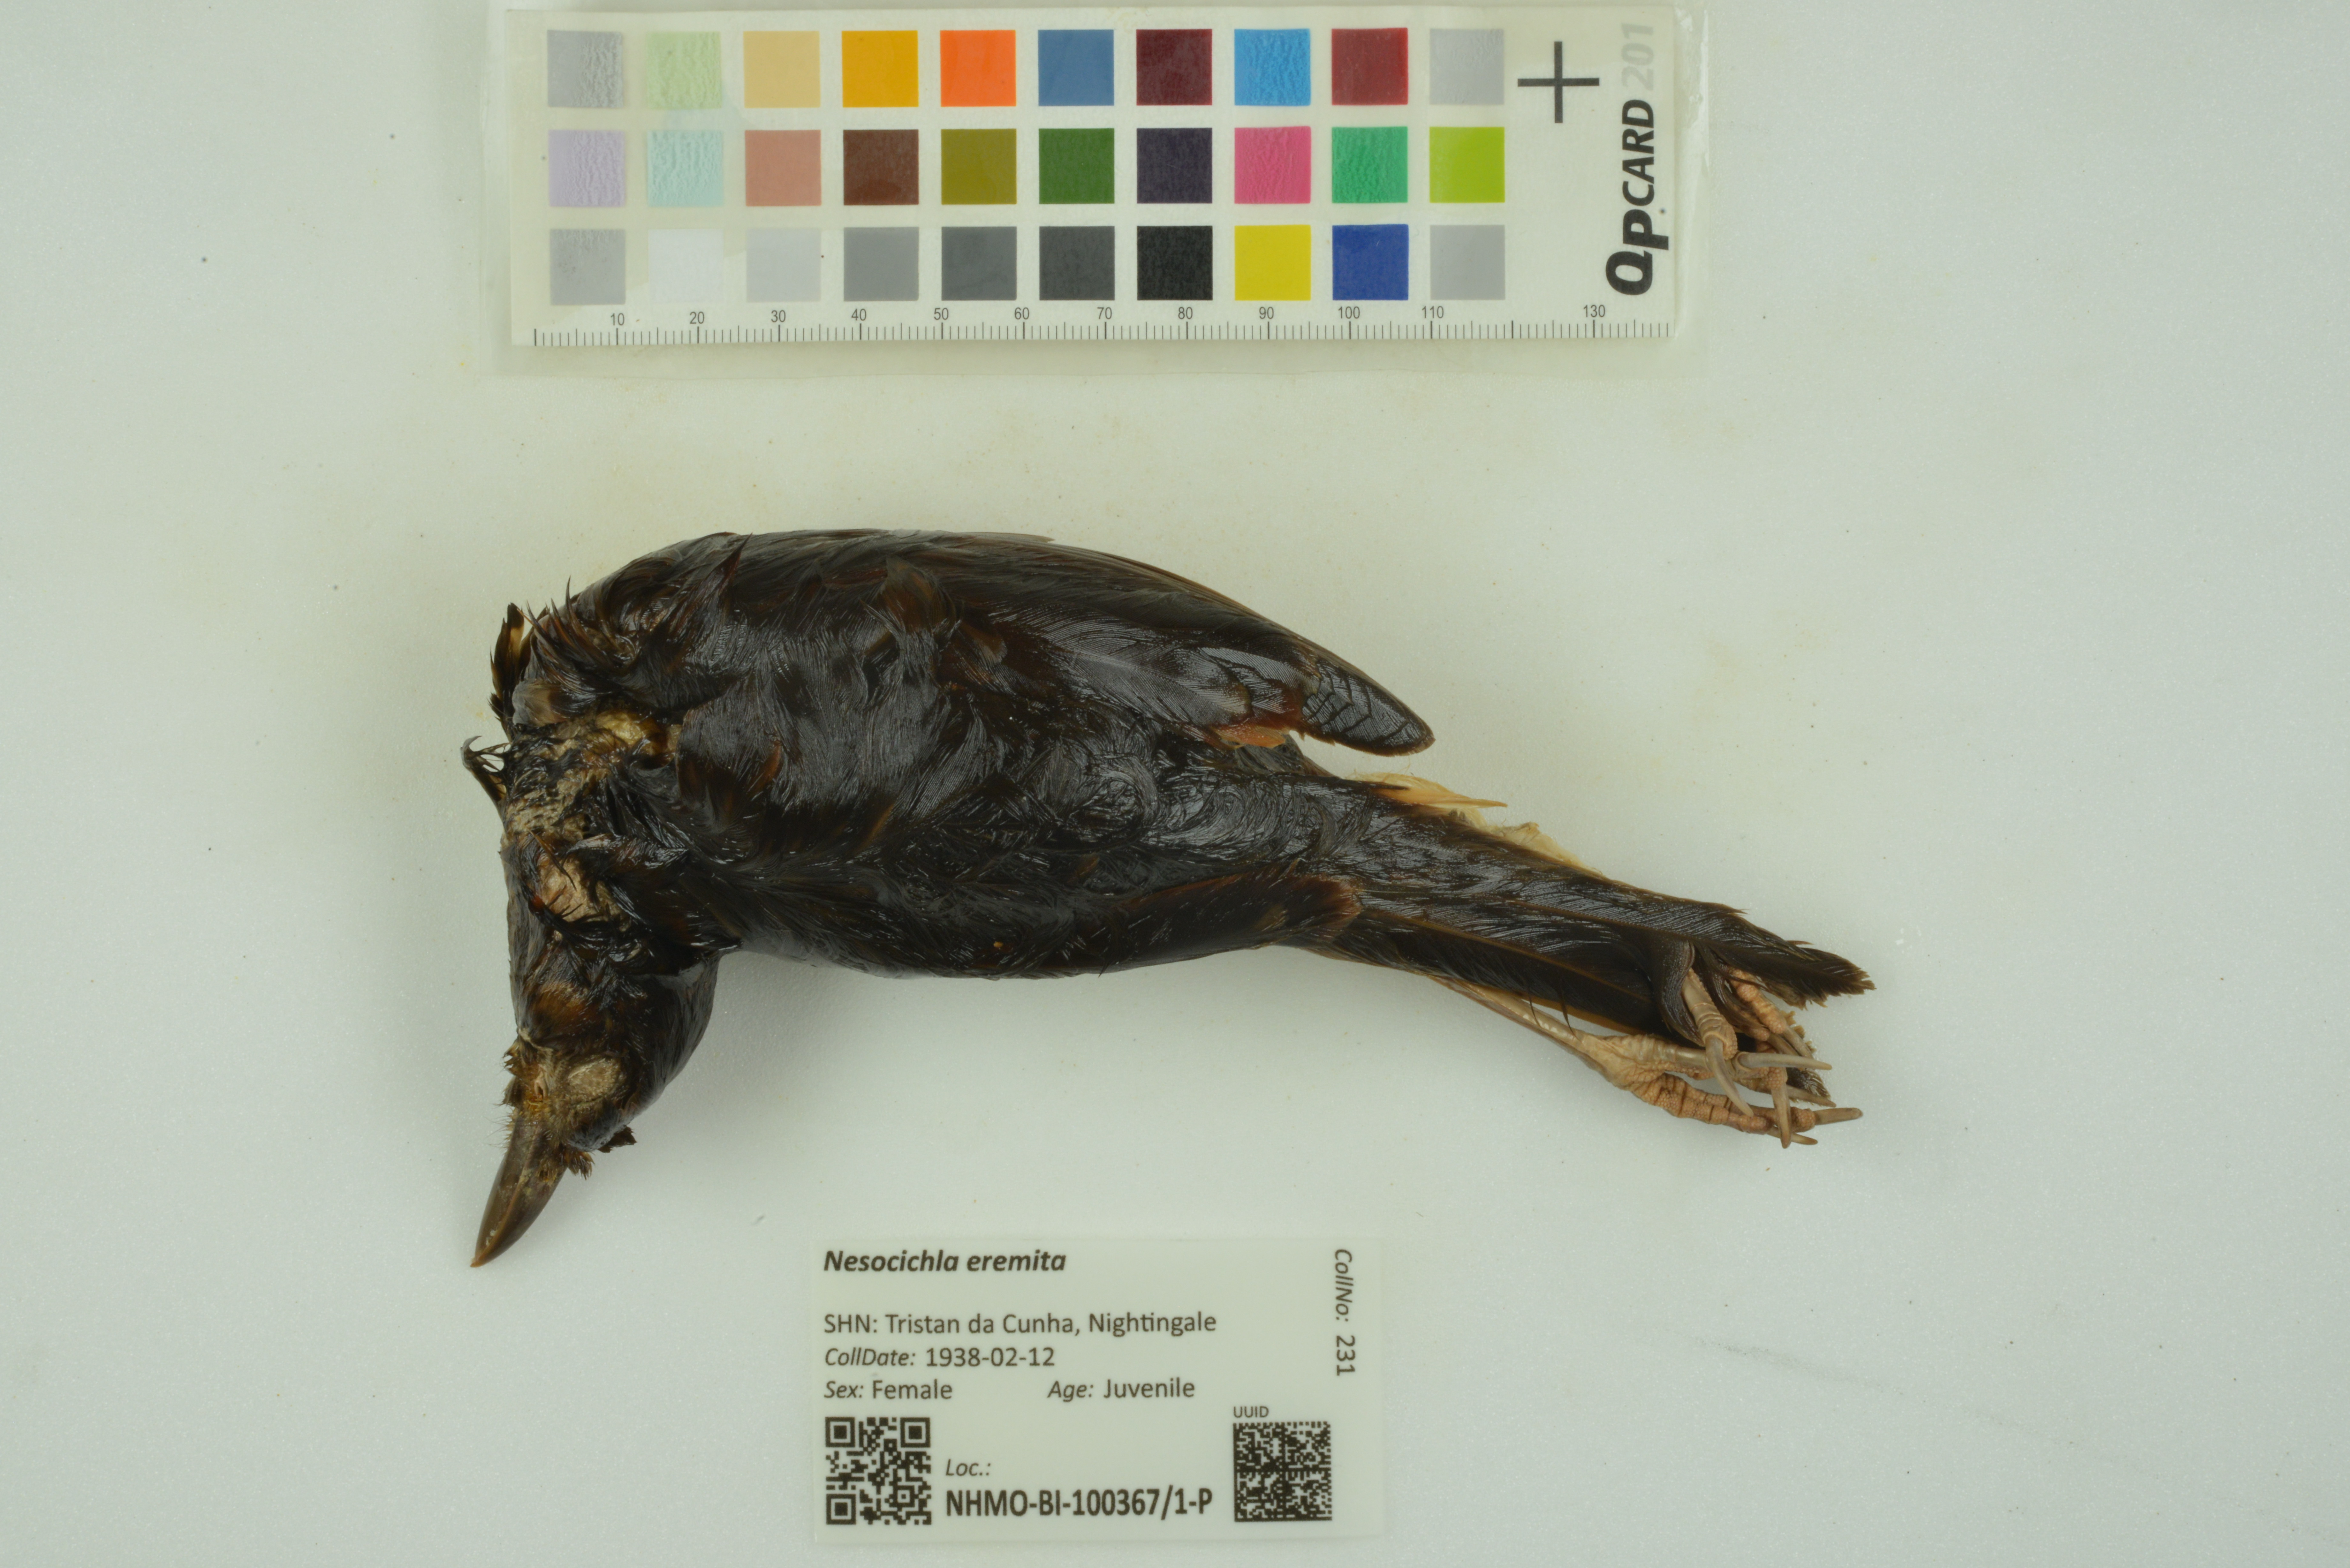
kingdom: Animalia
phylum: Chordata
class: Aves
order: Passeriformes
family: Turdidae
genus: Nesocichla
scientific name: Nesocichla eremita
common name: Tristan thrush
